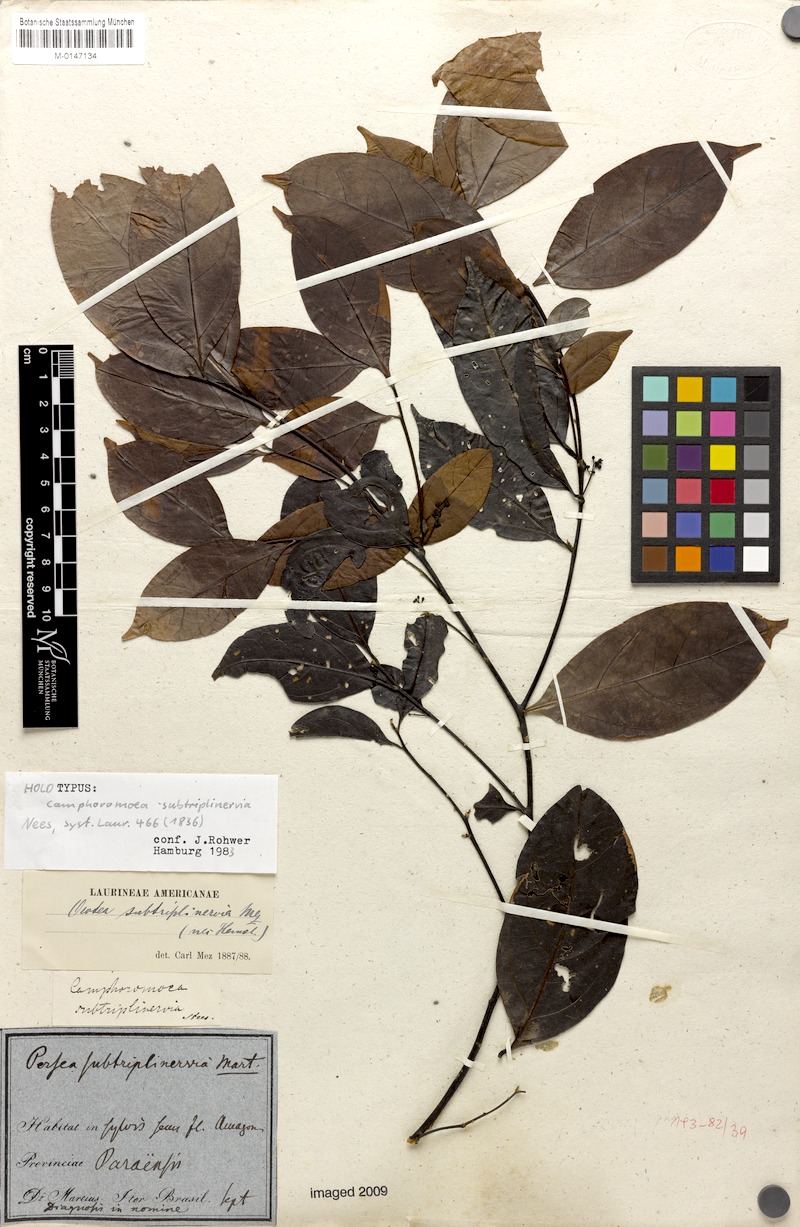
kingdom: Plantae
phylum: Tracheophyta
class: Magnoliopsida
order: Laurales
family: Lauraceae
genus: Ocotea
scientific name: Ocotea camphoromoea
